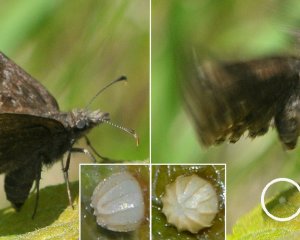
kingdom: Animalia
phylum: Arthropoda
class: Insecta
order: Lepidoptera
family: Hesperiidae
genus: Erynnis
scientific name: Erynnis icelus
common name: Dreamy Duskywing
